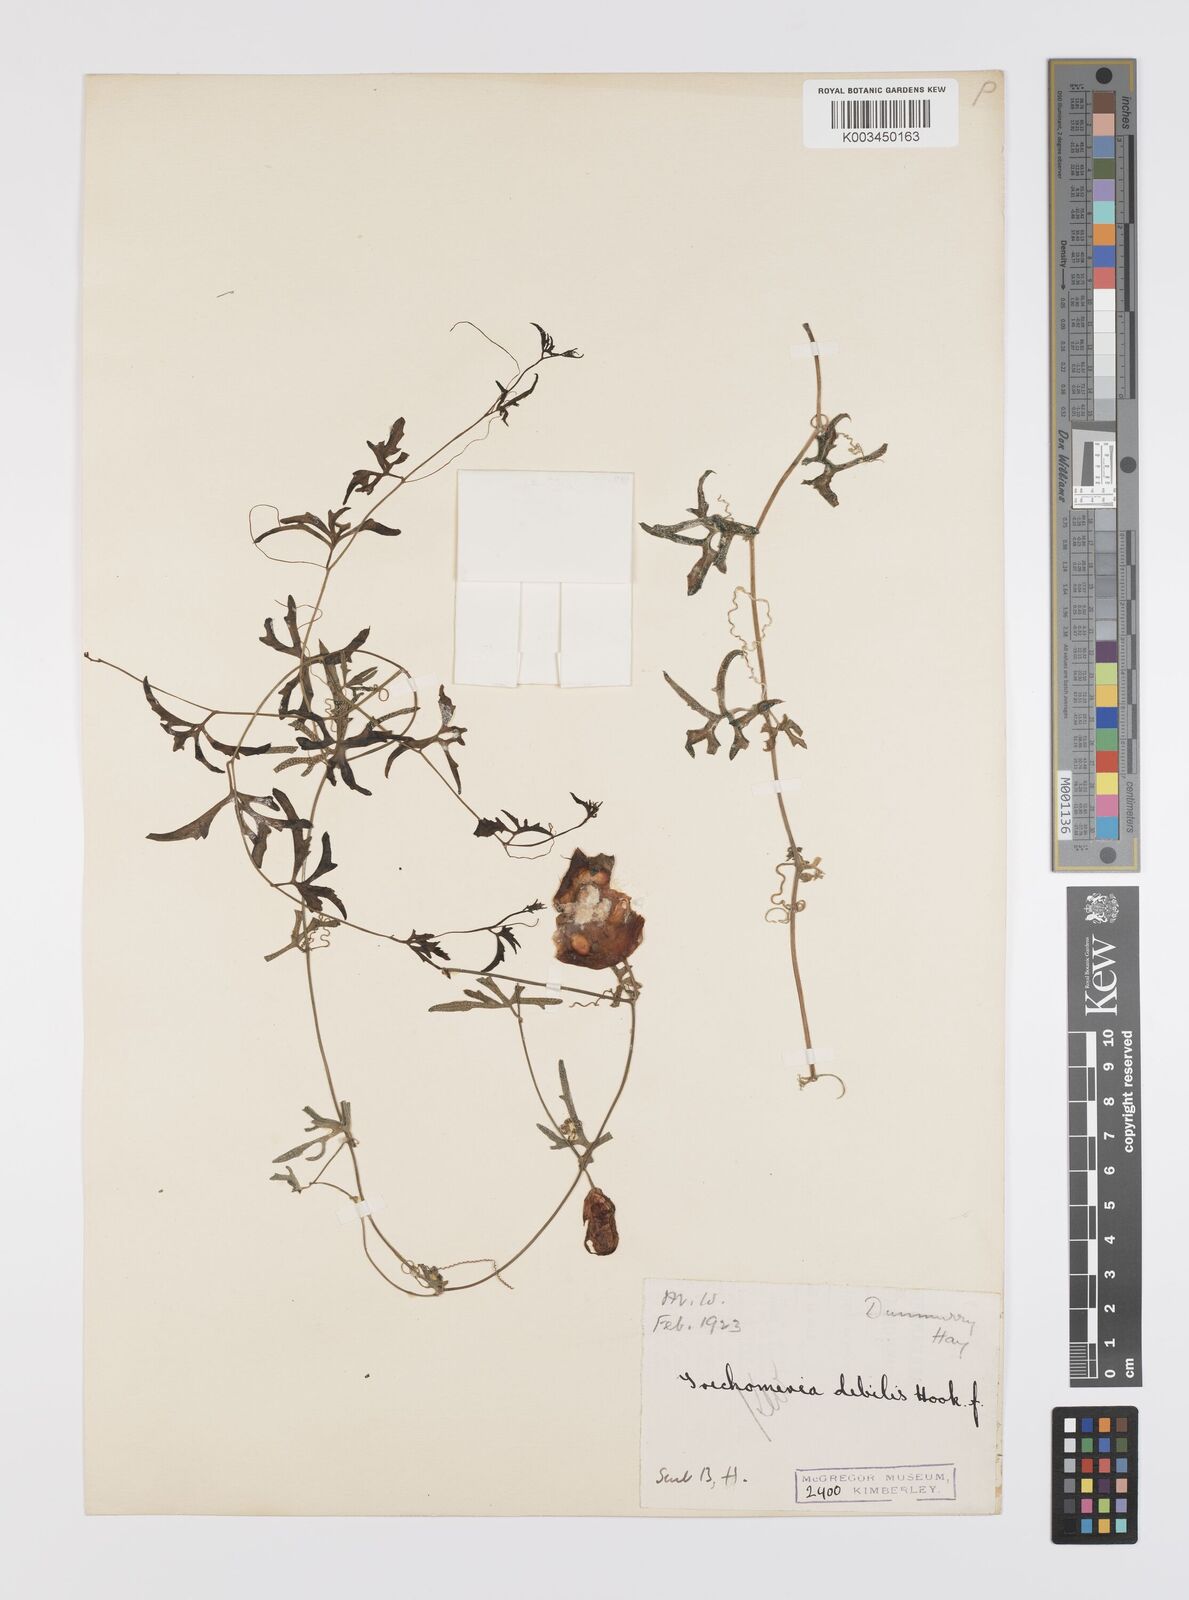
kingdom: Plantae
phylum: Tracheophyta
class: Magnoliopsida
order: Cucurbitales
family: Cucurbitaceae
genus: Trochomeria
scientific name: Trochomeria debilis
